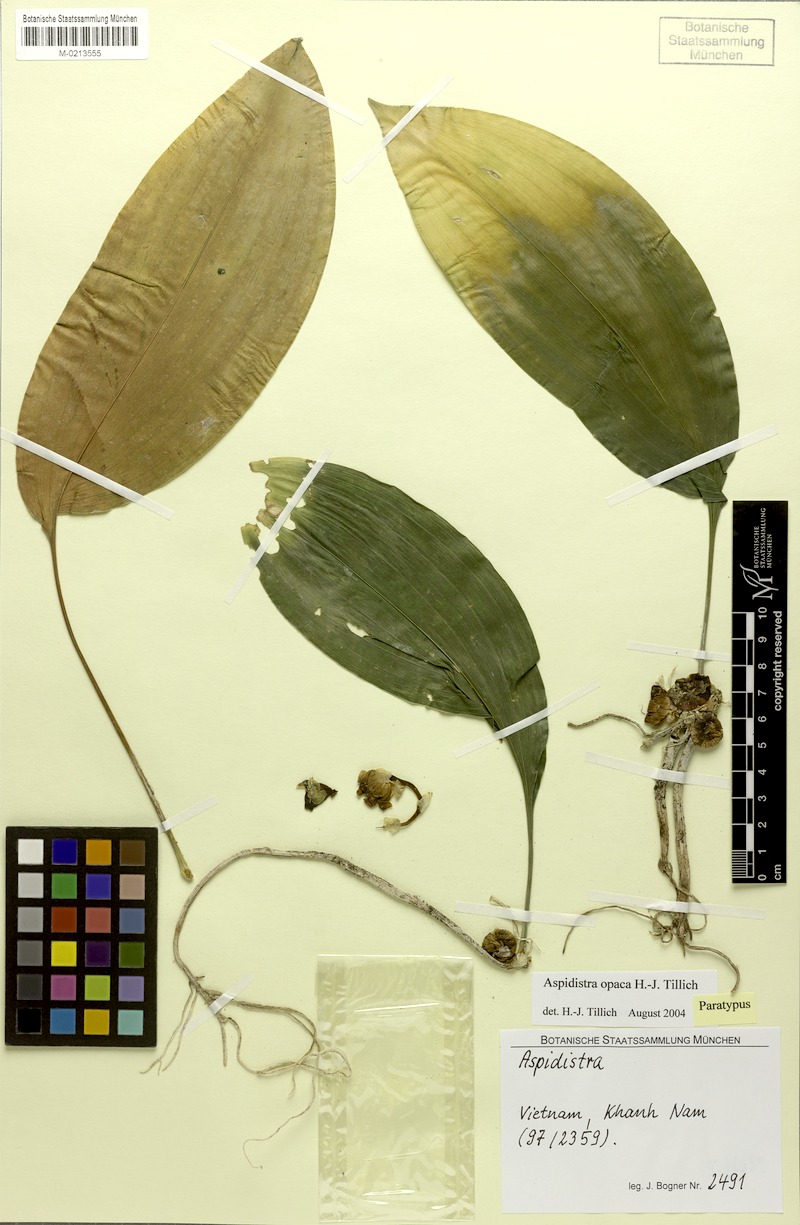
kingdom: Plantae
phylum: Tracheophyta
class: Liliopsida
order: Asparagales
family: Asparagaceae
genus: Aspidistra
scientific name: Aspidistra opaca
